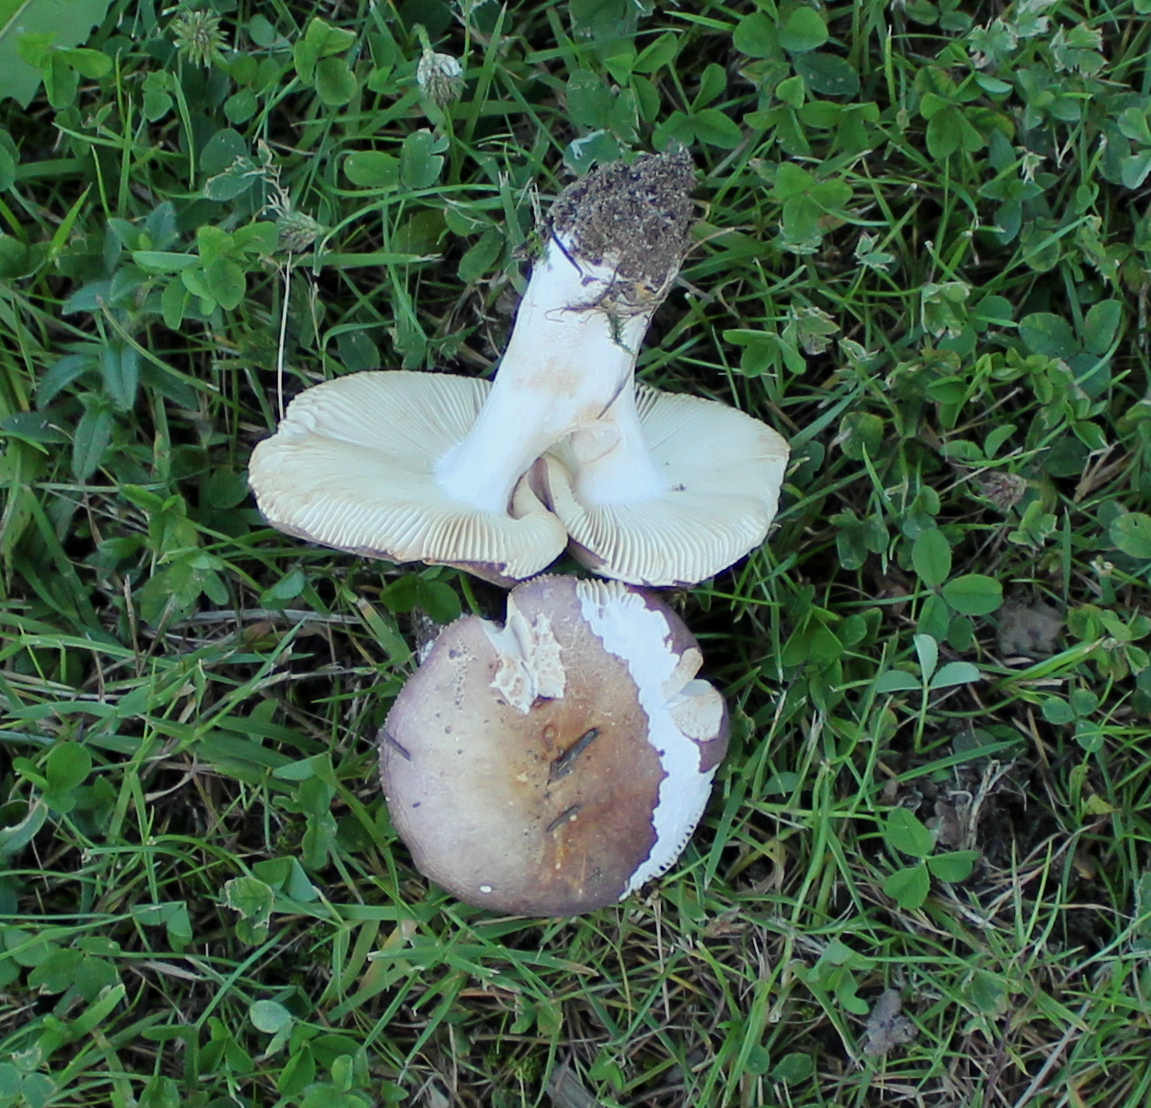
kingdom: Fungi
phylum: Basidiomycota
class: Agaricomycetes
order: Russulales
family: Russulaceae
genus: Russula
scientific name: Russula depallens
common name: falmende skørhat
